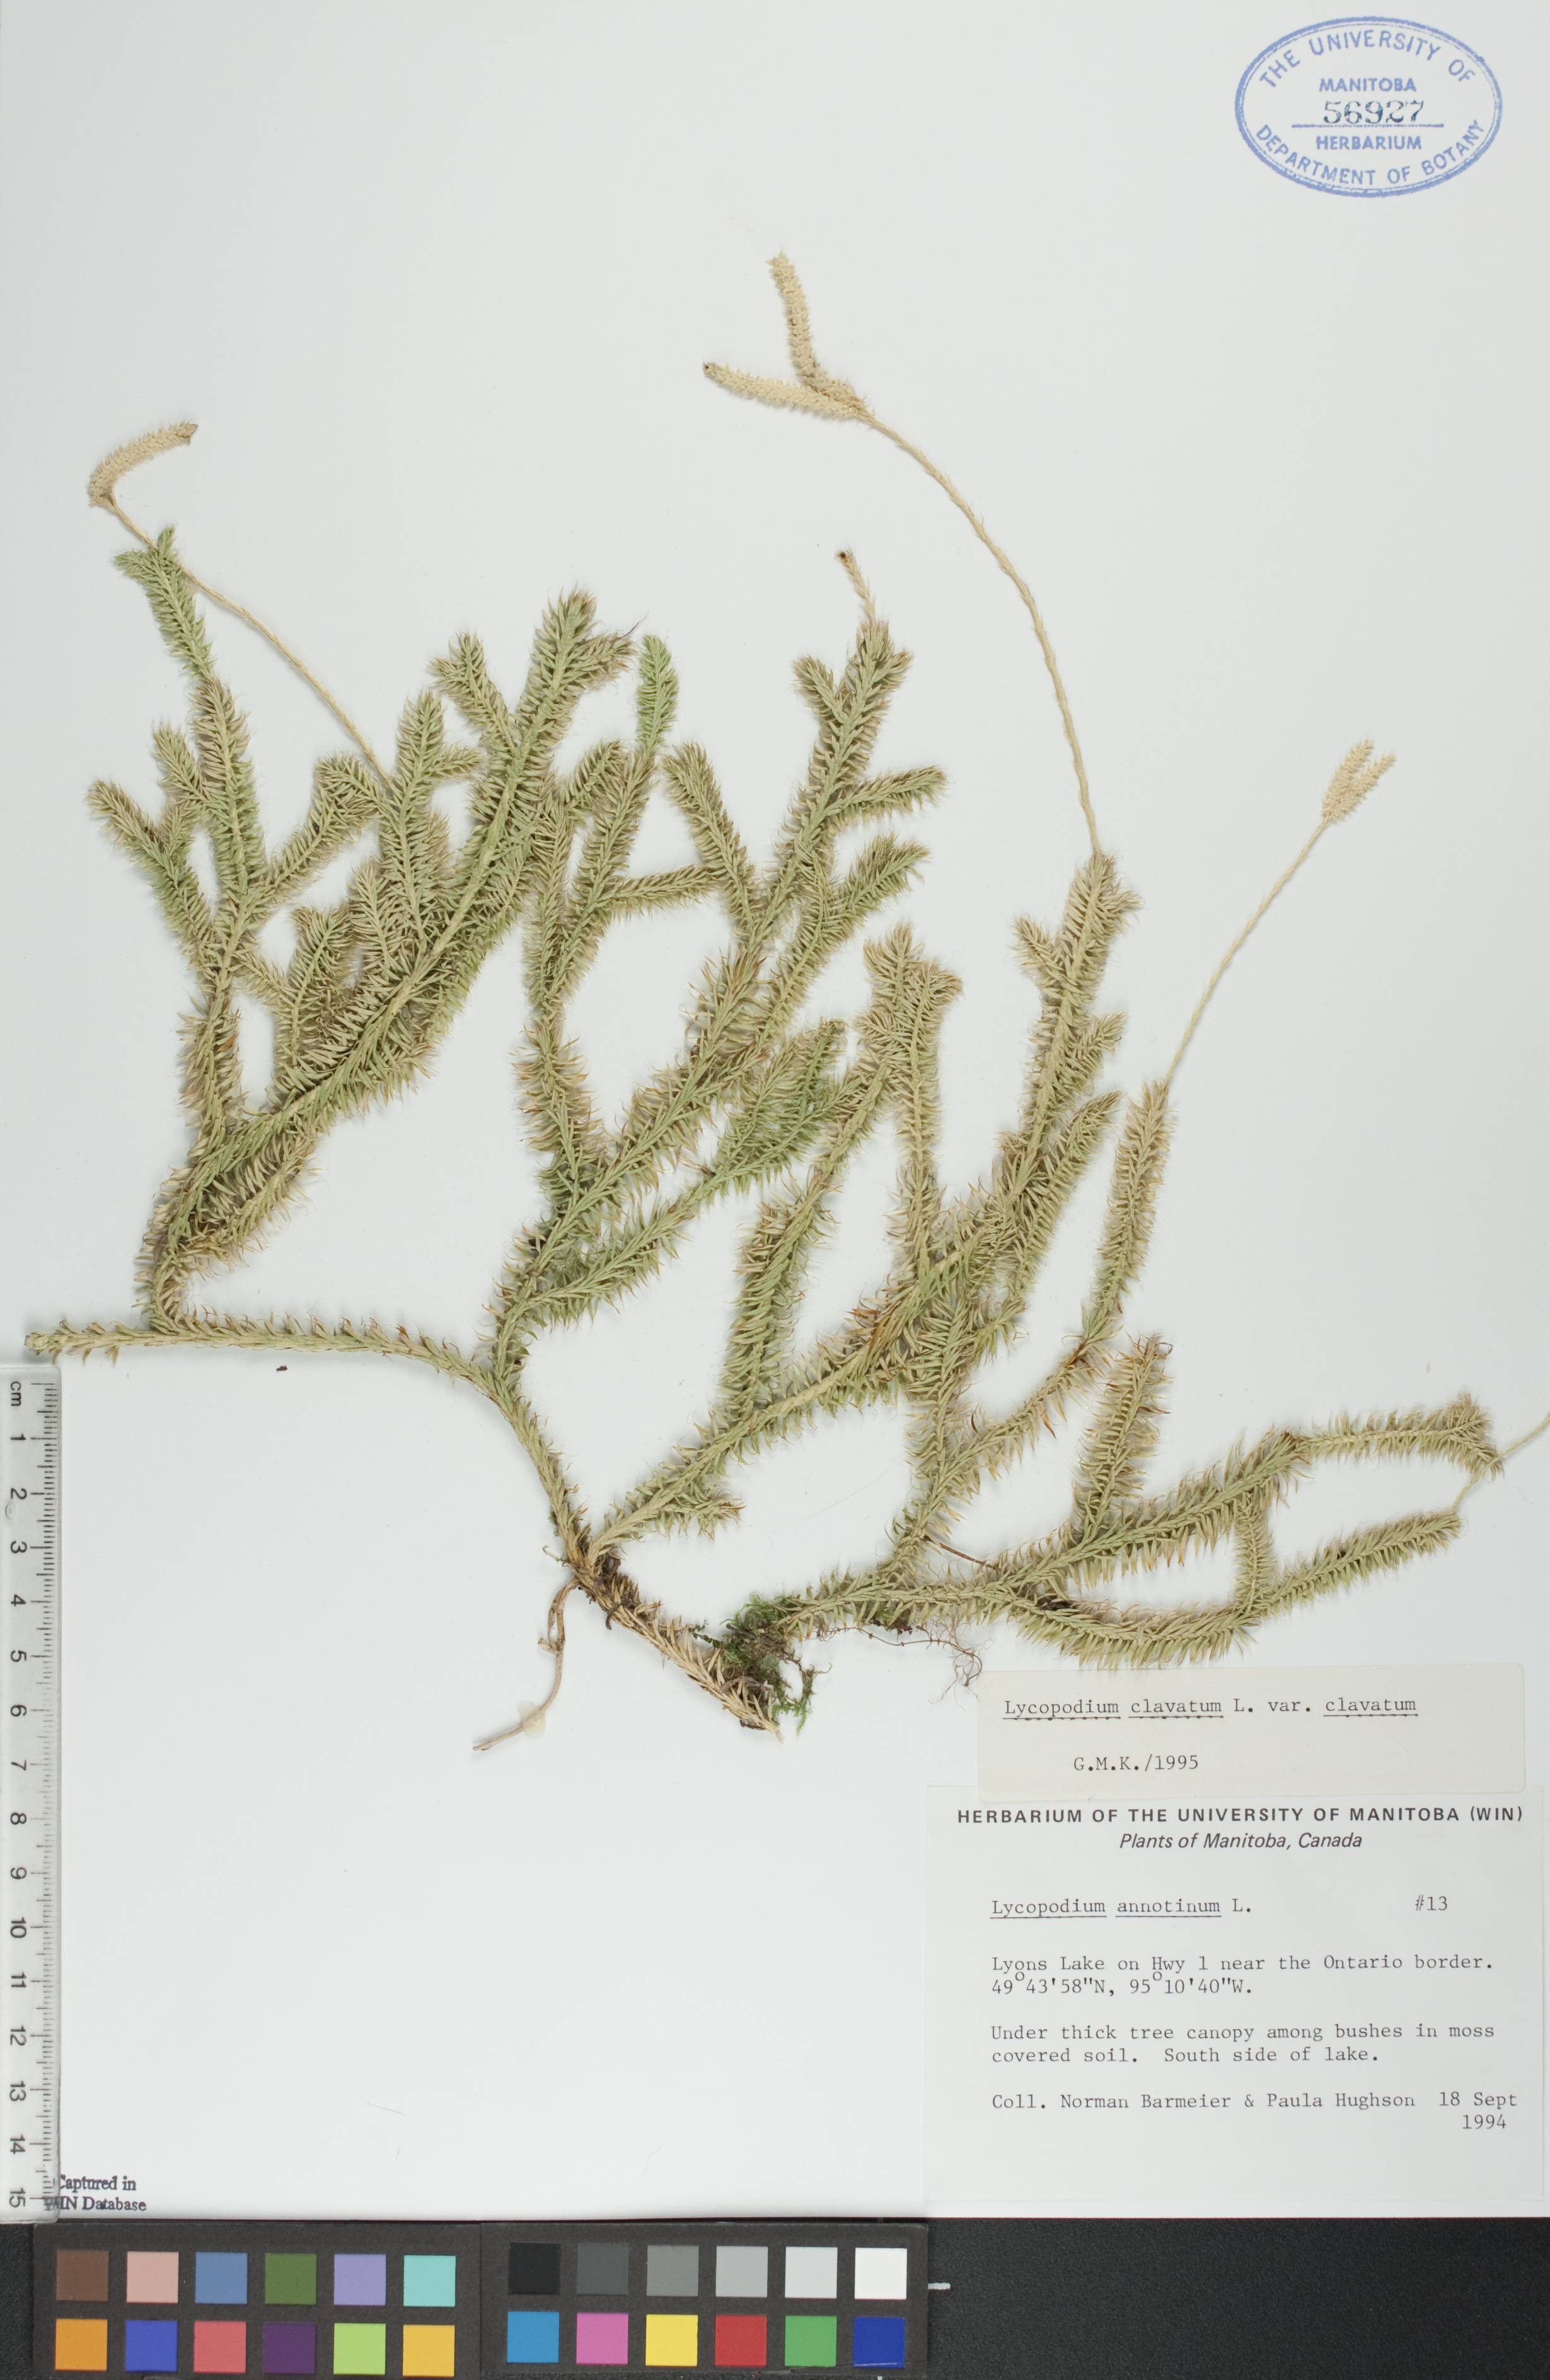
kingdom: Plantae
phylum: Tracheophyta
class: Lycopodiopsida
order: Lycopodiales
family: Lycopodiaceae
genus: Lycopodium
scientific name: Lycopodium clavatum
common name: Stag's-horn clubmoss
